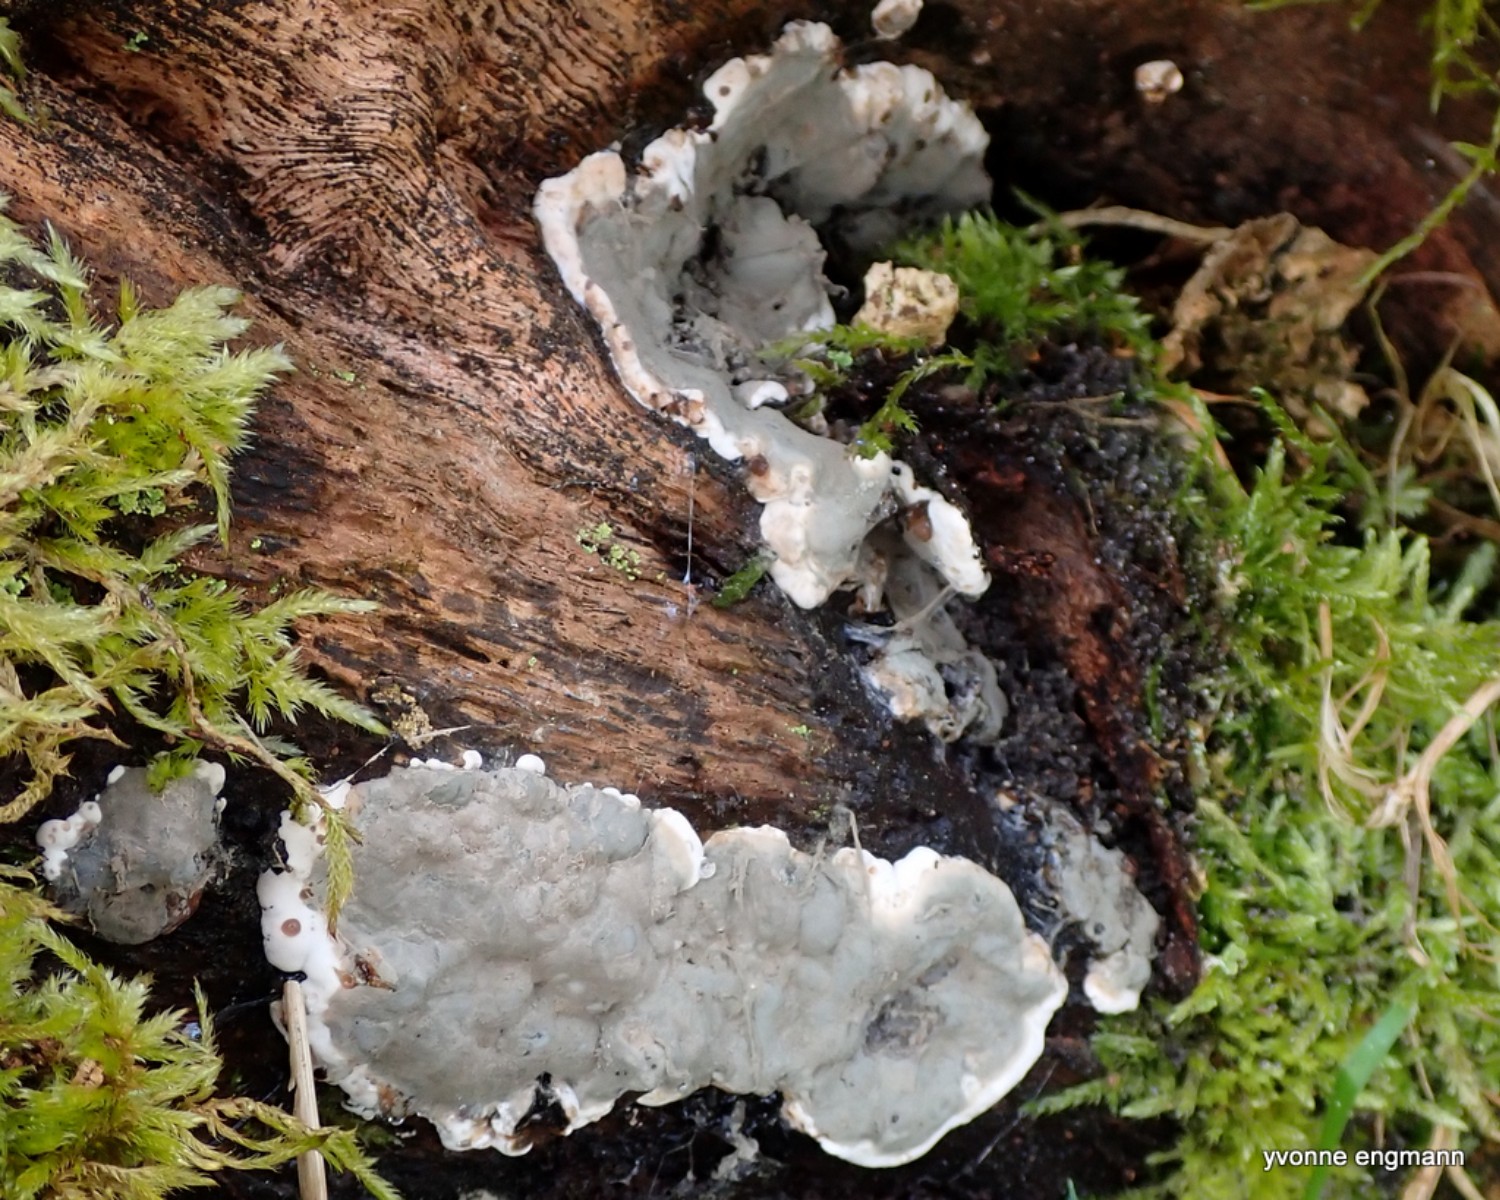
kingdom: Fungi
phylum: Ascomycota
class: Sordariomycetes
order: Xylariales
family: Xylariaceae
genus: Kretzschmaria
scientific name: Kretzschmaria deusta
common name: stor kulsvamp
